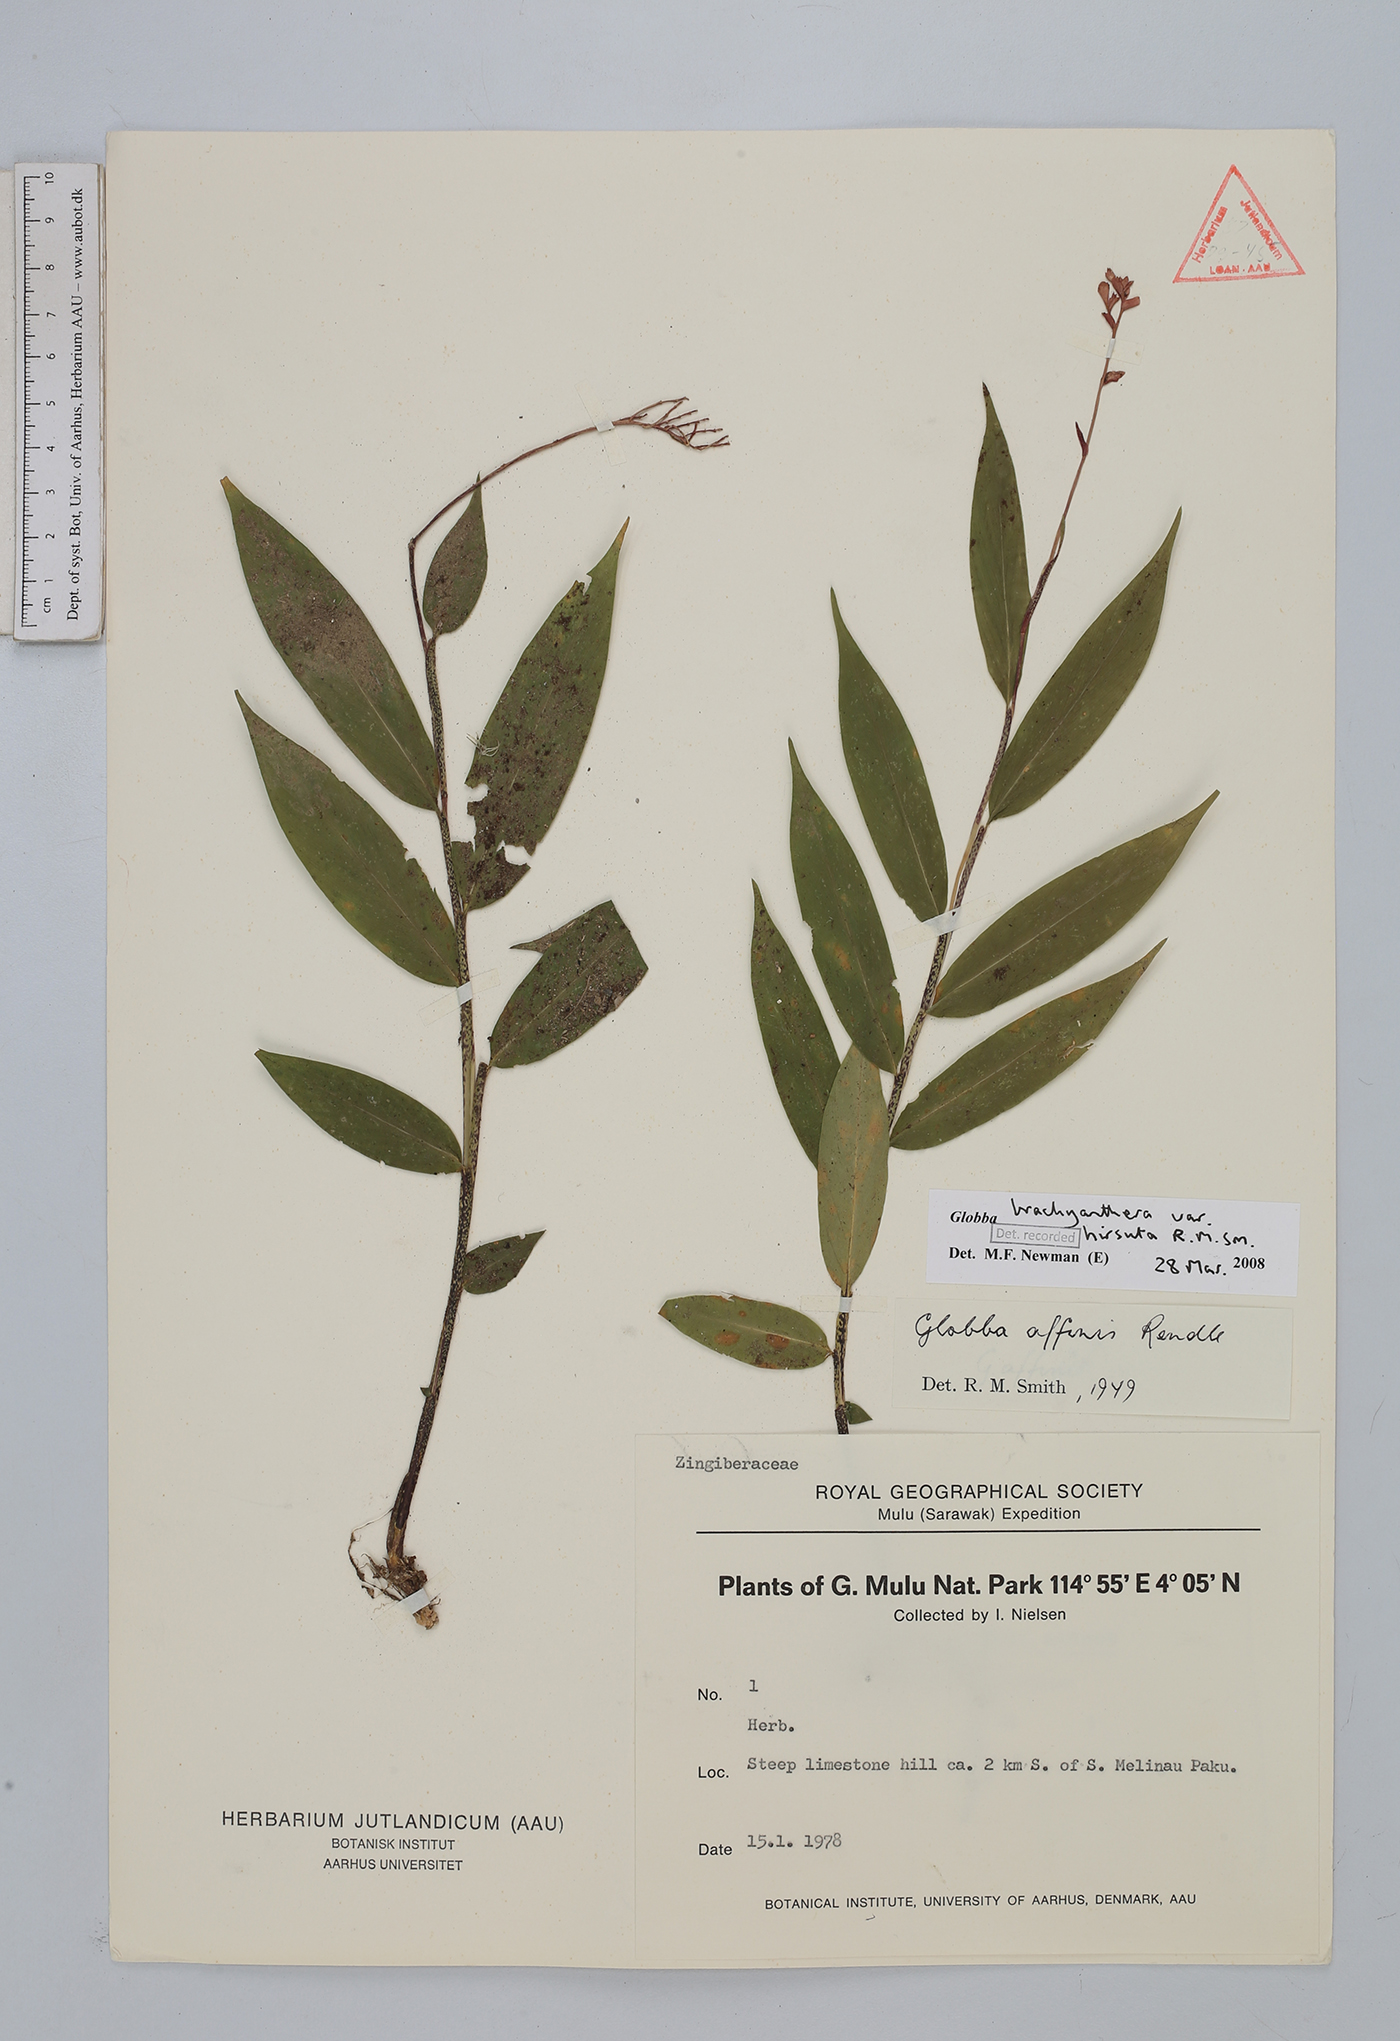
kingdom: Plantae
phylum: Tracheophyta
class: Liliopsida
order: Zingiberales
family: Zingiberaceae
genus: Globba
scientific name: Globba brachyanthera
